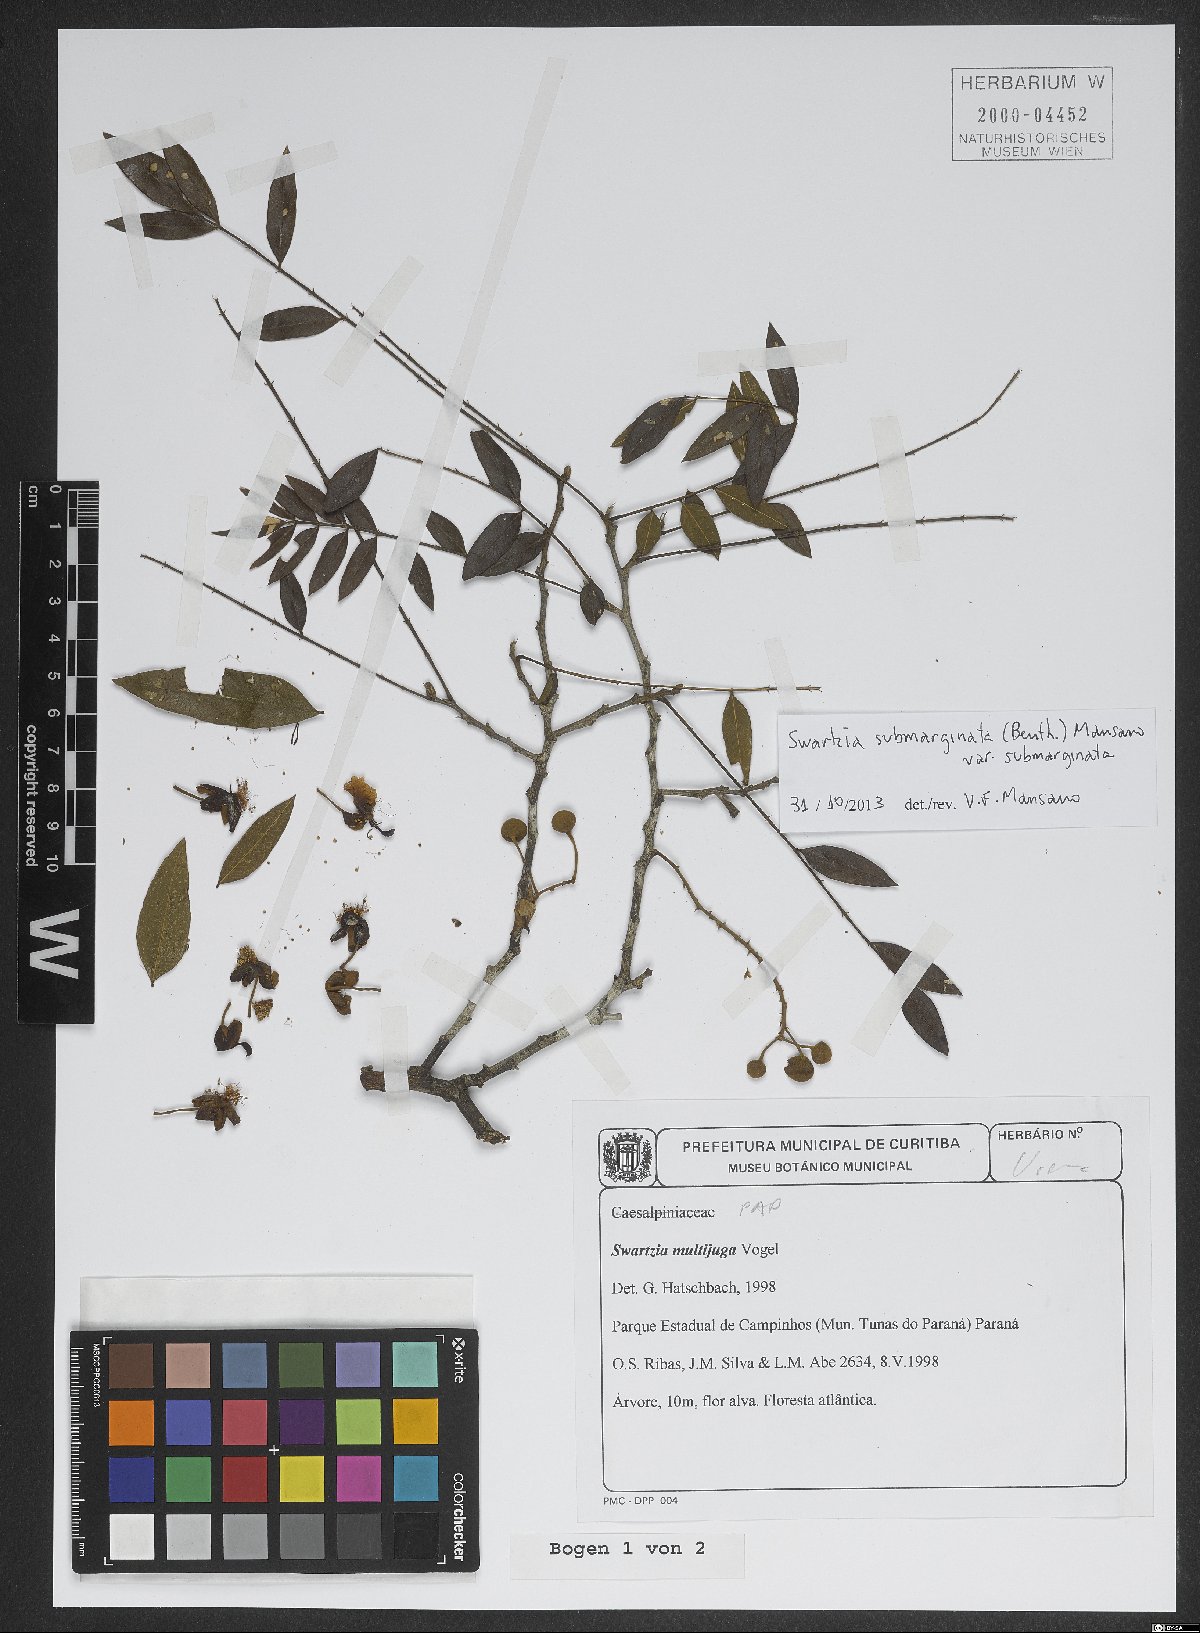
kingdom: Plantae
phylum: Tracheophyta
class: Magnoliopsida
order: Fabales
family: Fabaceae
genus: Swartzia
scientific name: Swartzia submarginata
